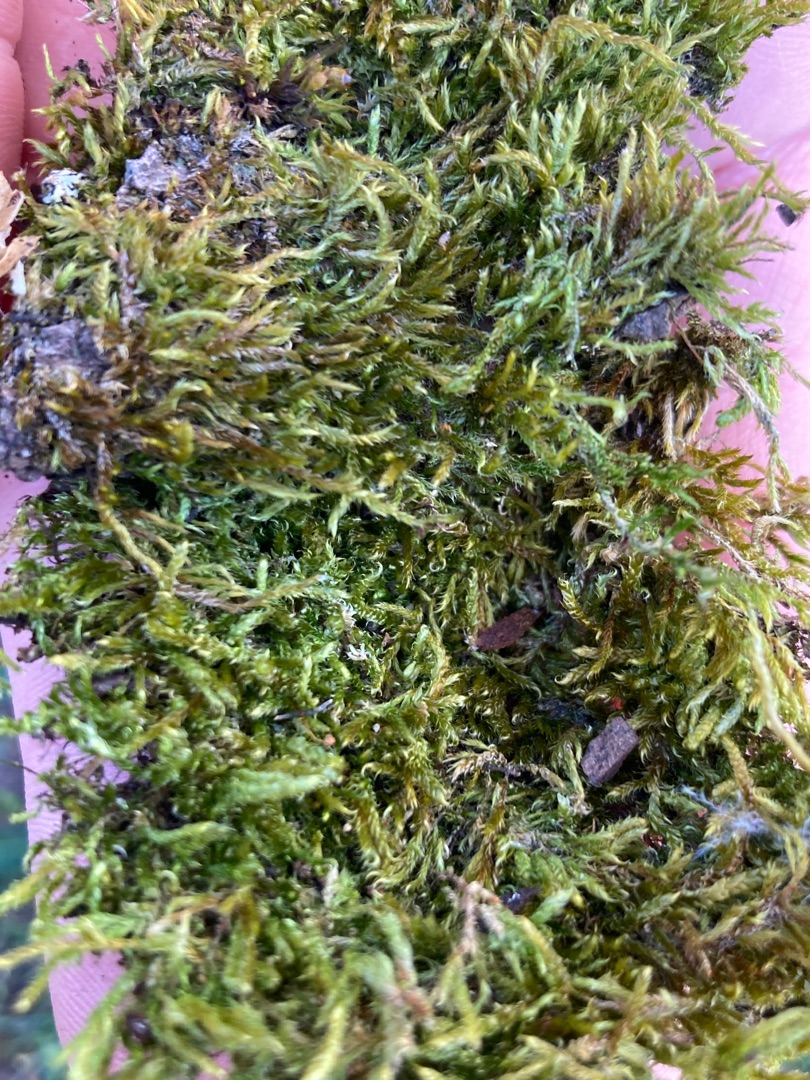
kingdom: Plantae
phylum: Bryophyta
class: Bryopsida
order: Hypnales
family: Hypnaceae
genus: Hypnum
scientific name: Hypnum cupressiforme
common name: Almindelig cypresmos
